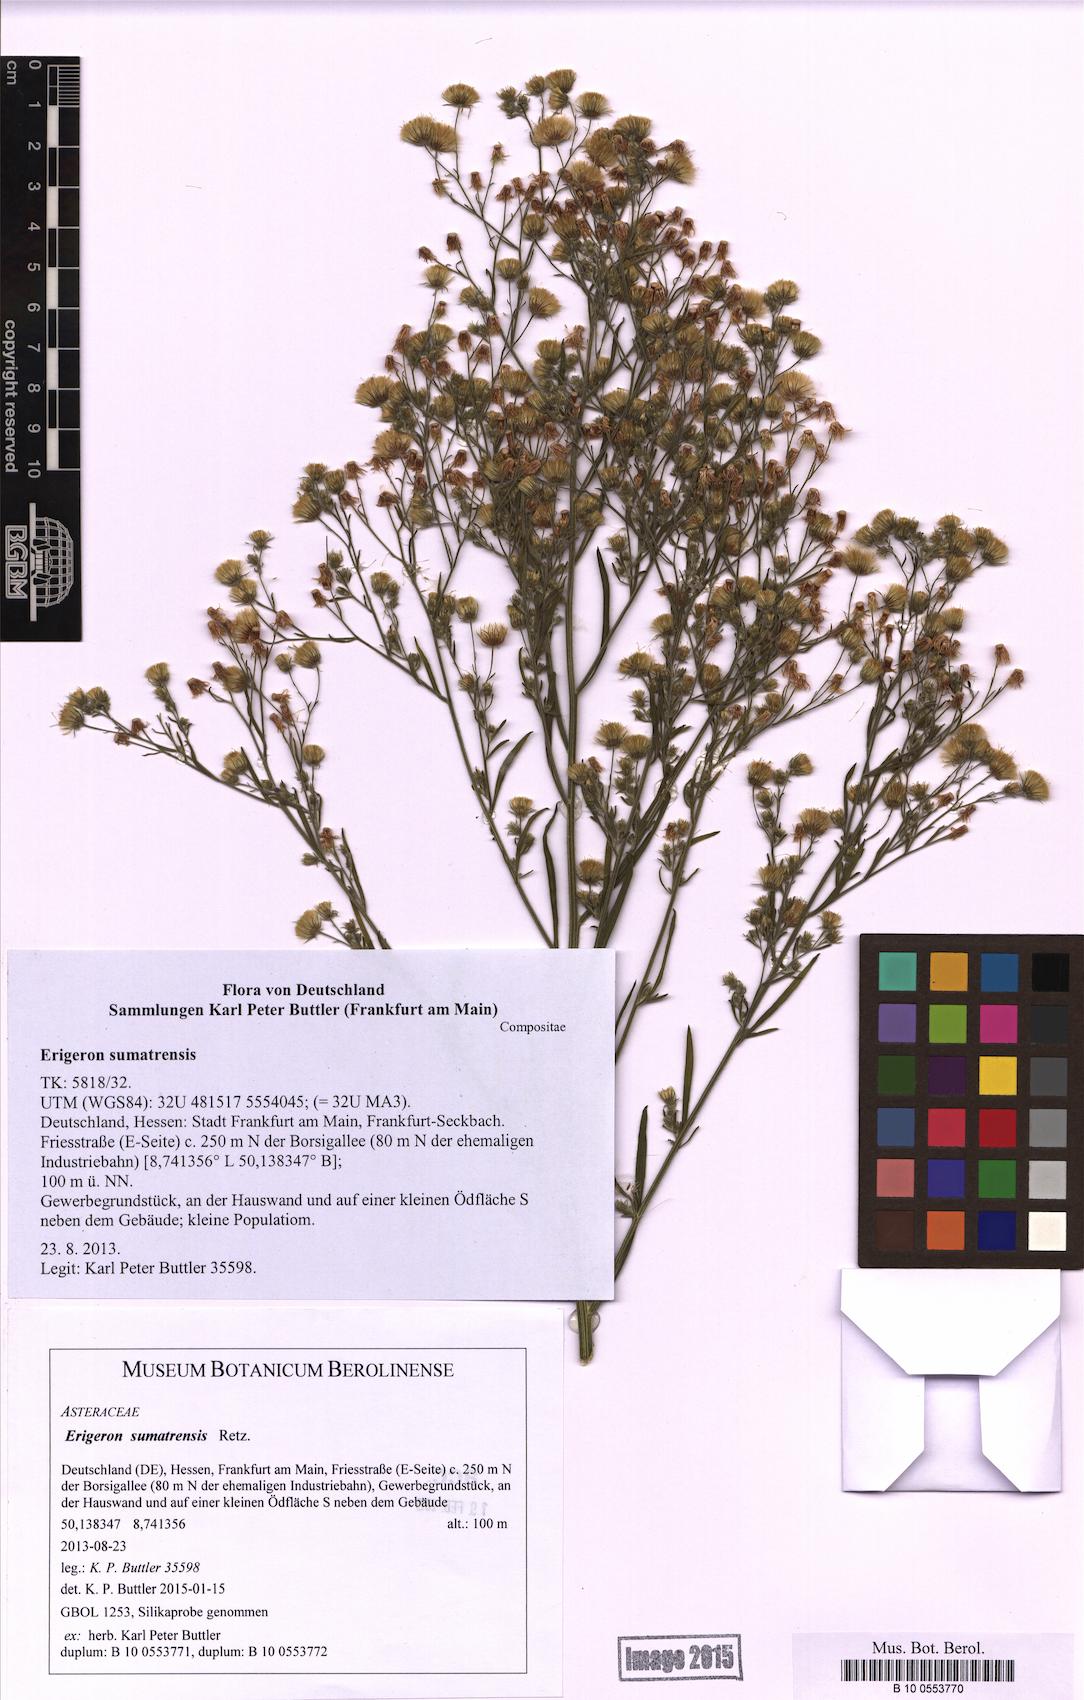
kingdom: Plantae
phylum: Tracheophyta
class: Magnoliopsida
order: Asterales
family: Asteraceae
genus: Erigeron
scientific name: Erigeron sumatrensis
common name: Daisy
